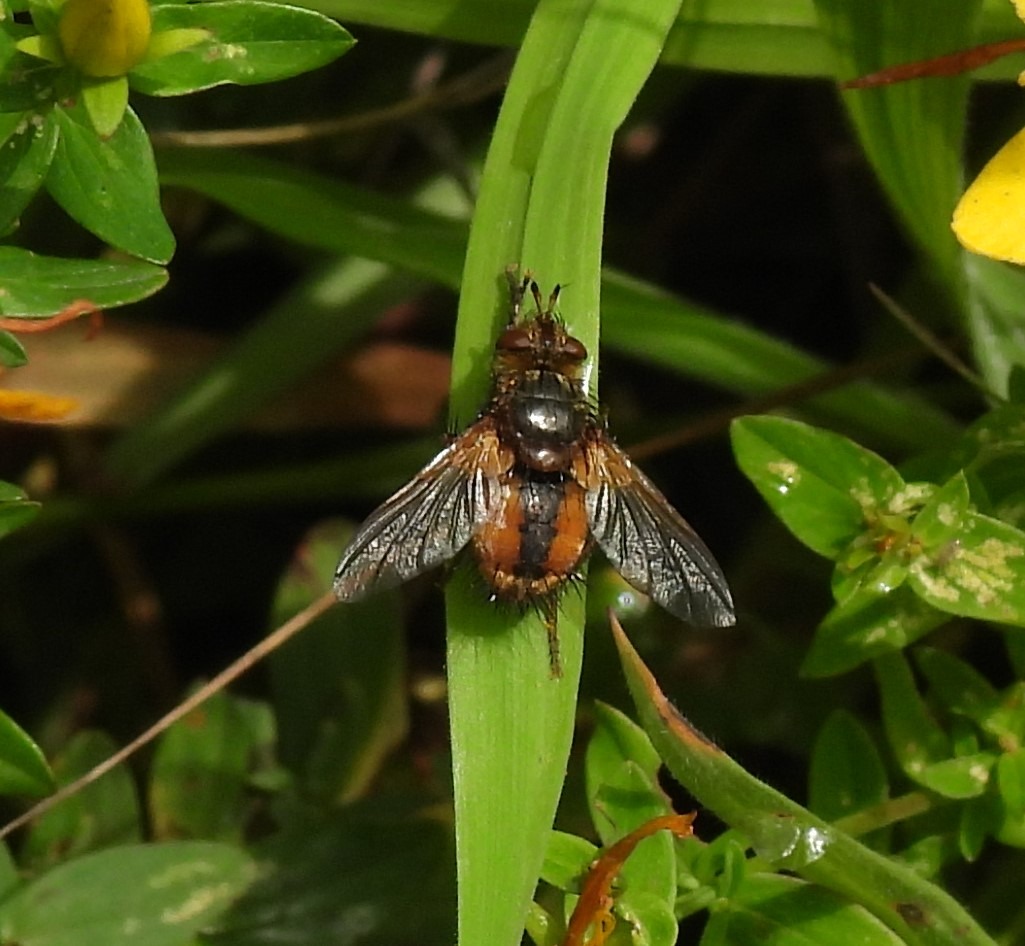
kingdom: Animalia
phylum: Arthropoda
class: Insecta
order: Diptera
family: Tachinidae
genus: Tachina
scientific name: Tachina fera
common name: Mellemfluen oskar
